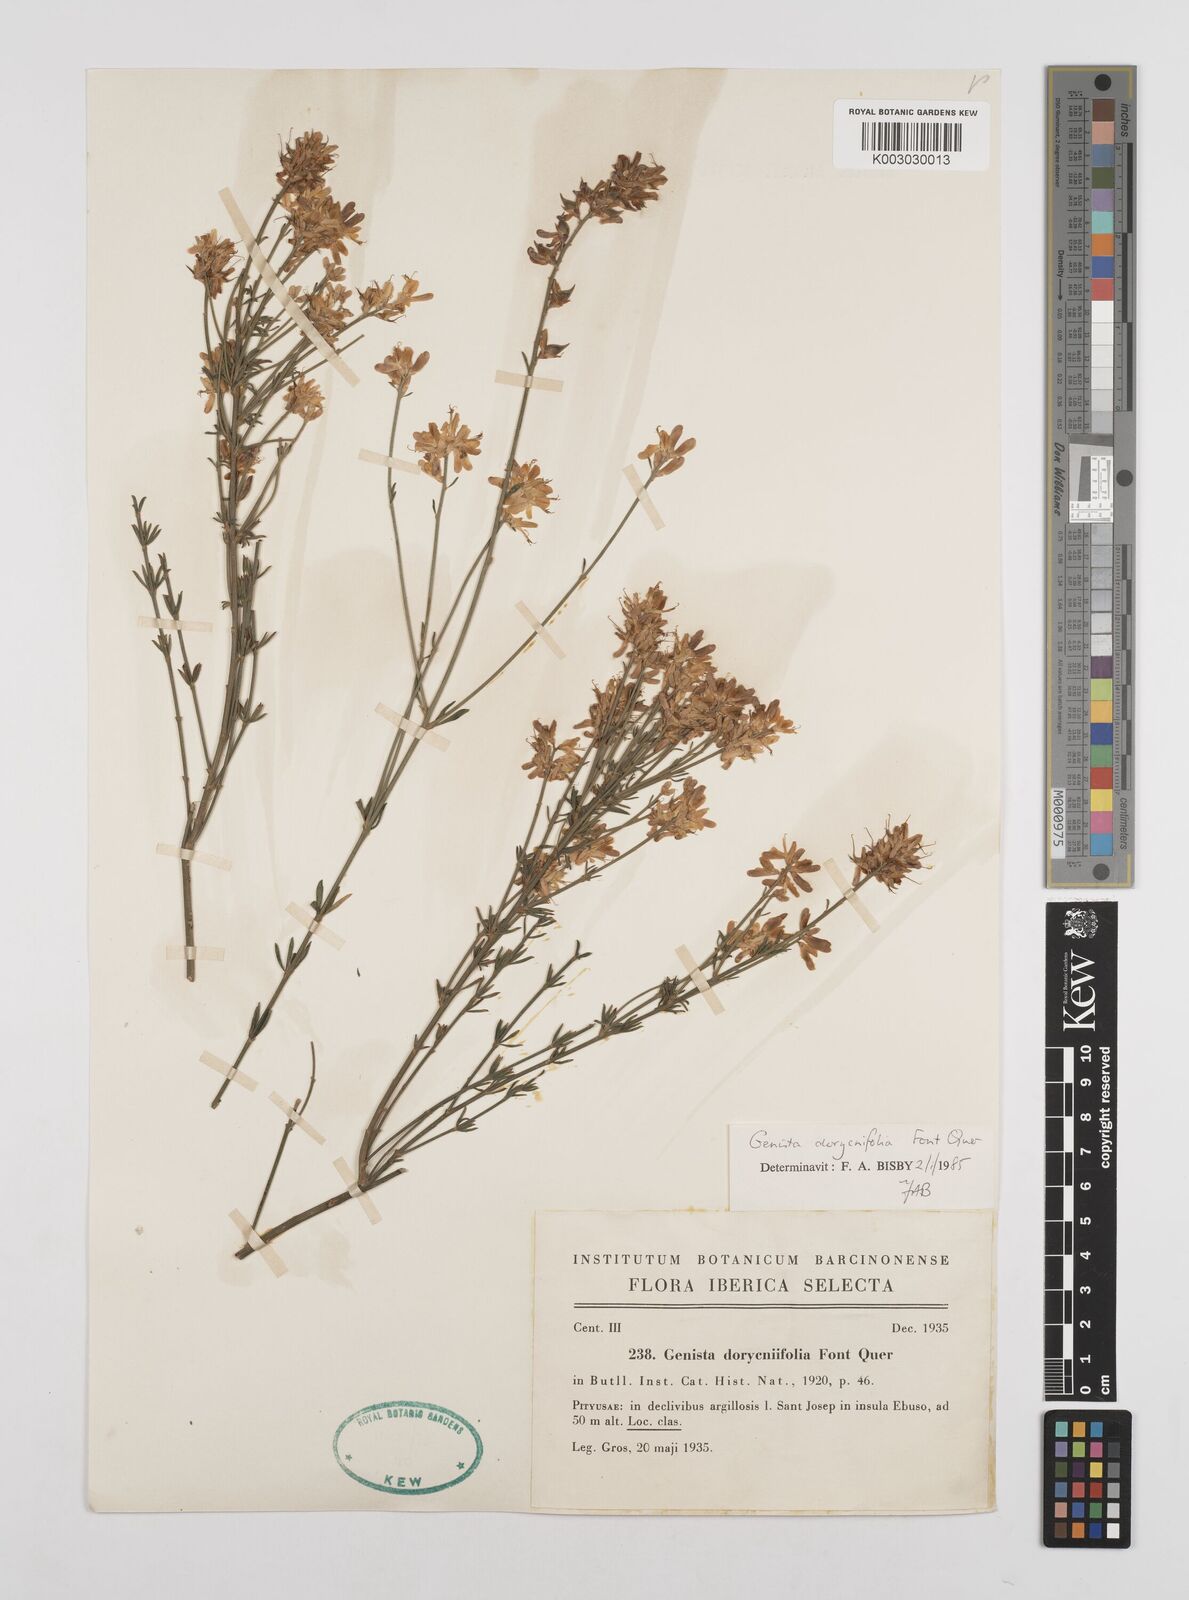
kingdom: Plantae
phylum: Tracheophyta
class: Magnoliopsida
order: Fabales
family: Fabaceae
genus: Genista
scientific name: Genista dorycnifolia
